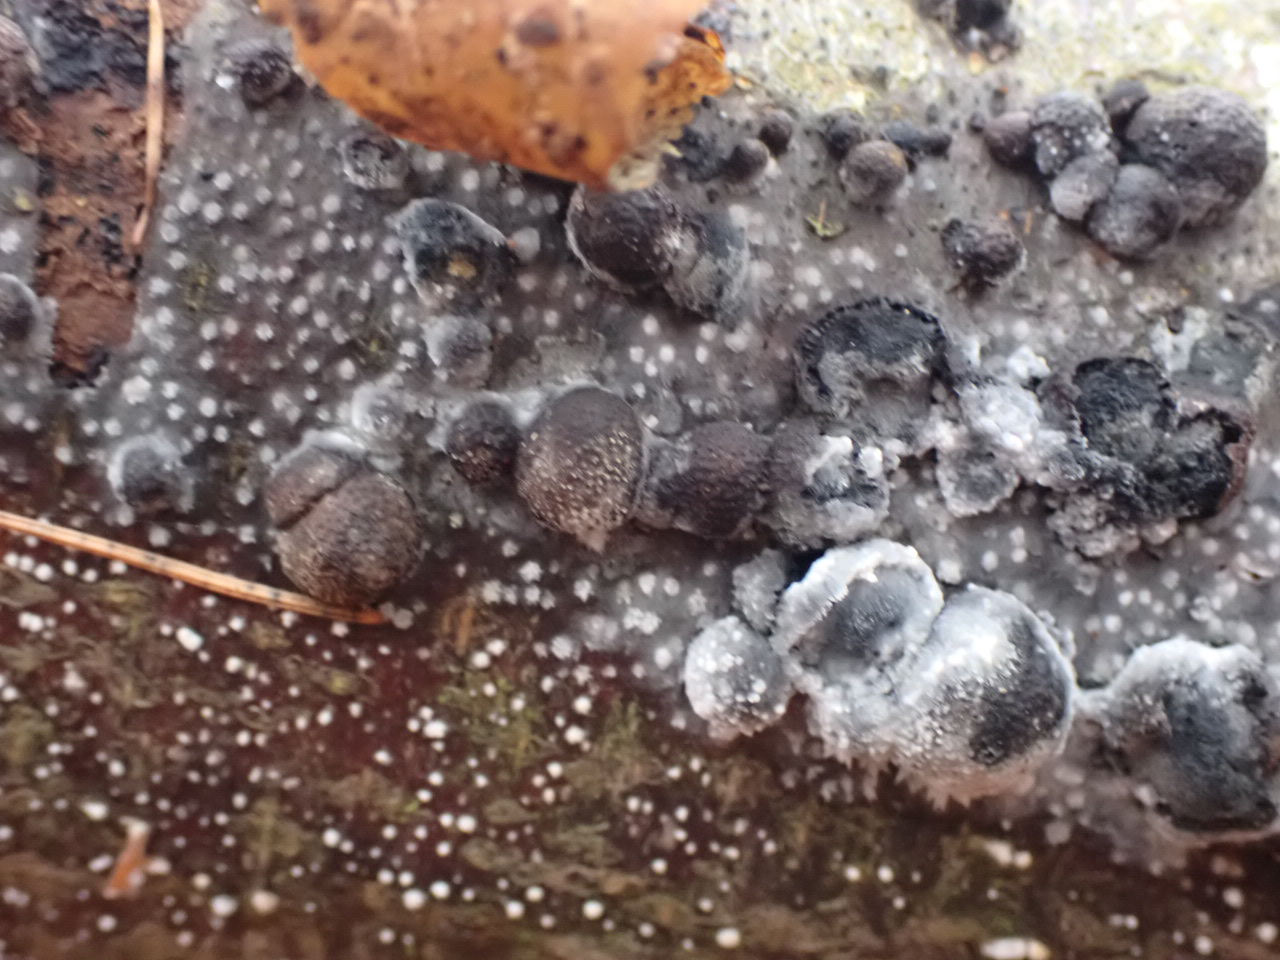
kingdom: Fungi
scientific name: Fungi
